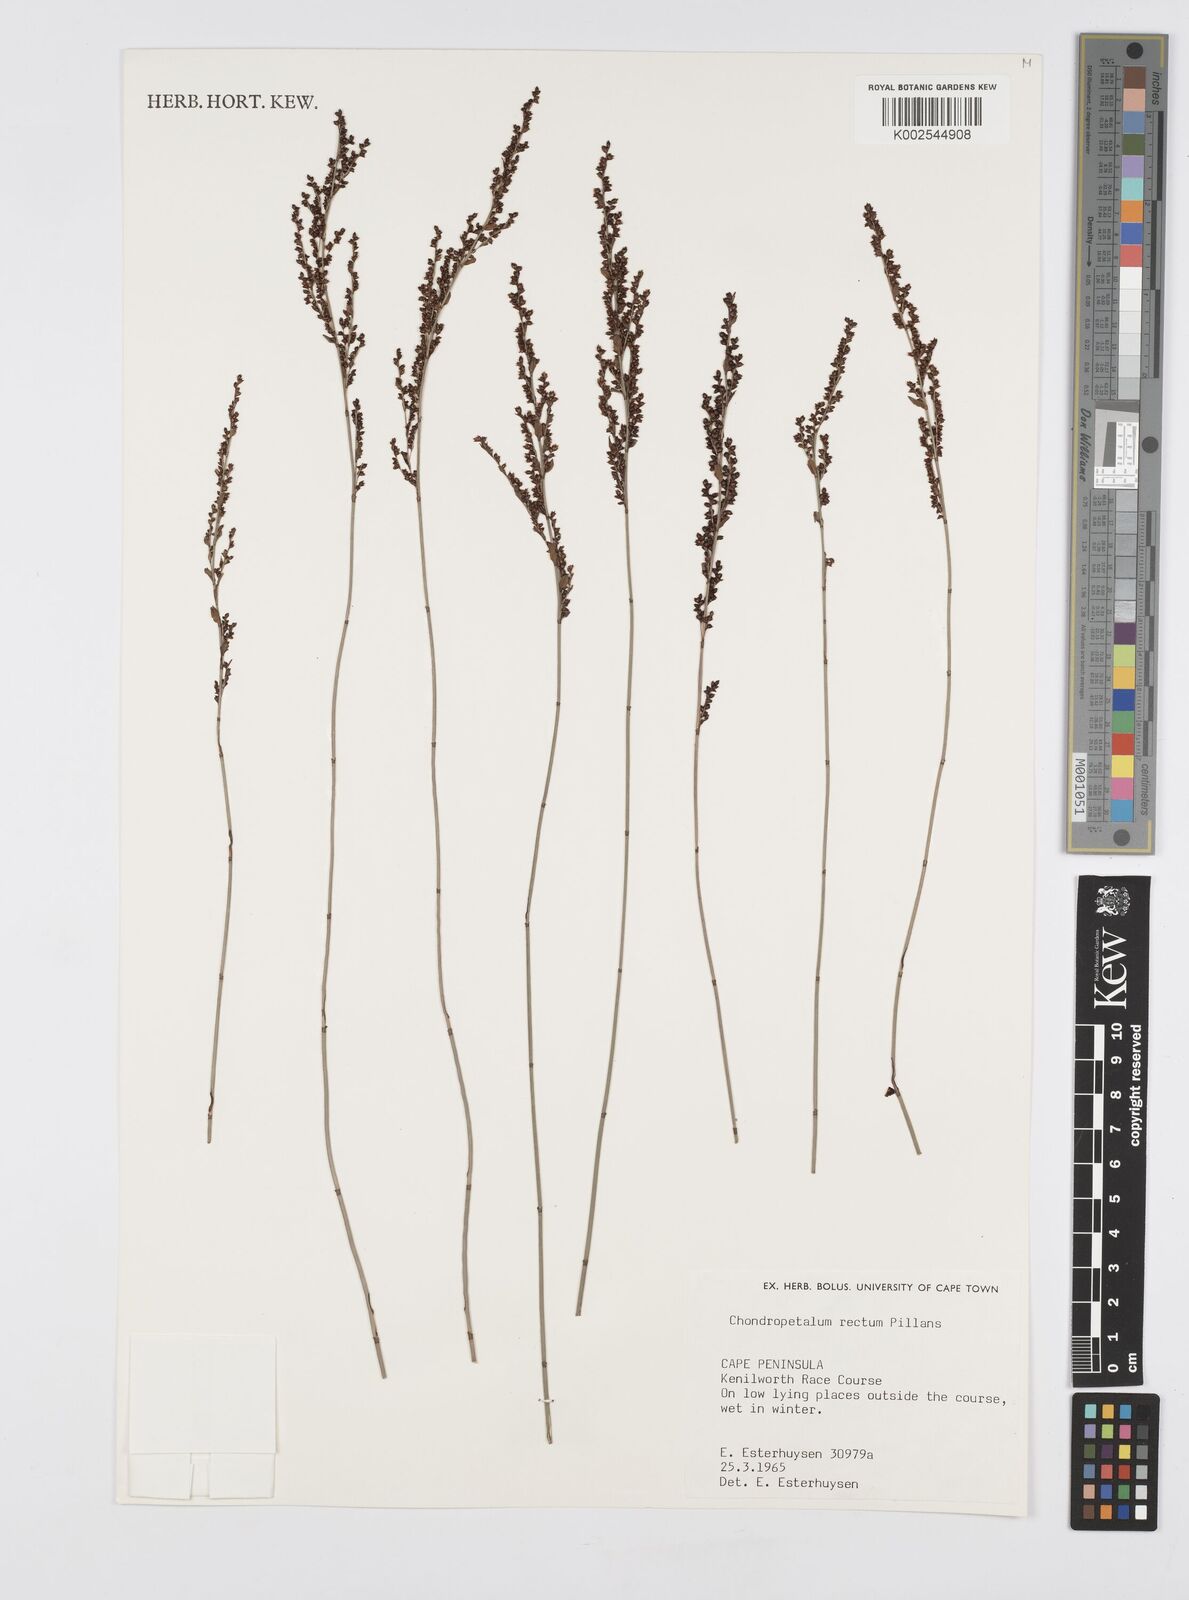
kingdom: Plantae
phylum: Tracheophyta
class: Liliopsida
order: Poales
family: Restionaceae
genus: Elegia
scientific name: Elegia recta
